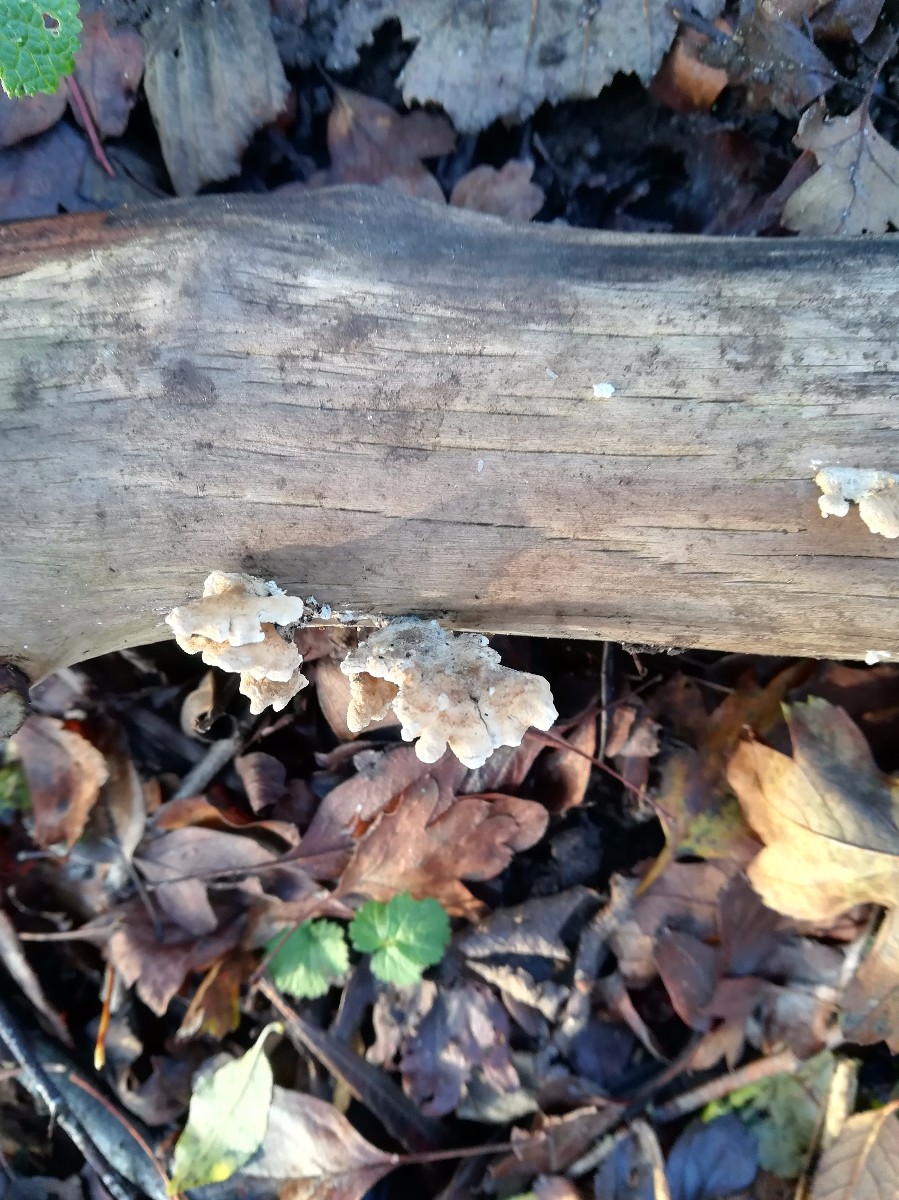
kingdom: Fungi
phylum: Basidiomycota
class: Agaricomycetes
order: Amylocorticiales
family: Amylocorticiaceae
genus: Plicaturopsis
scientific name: Plicaturopsis crispa
